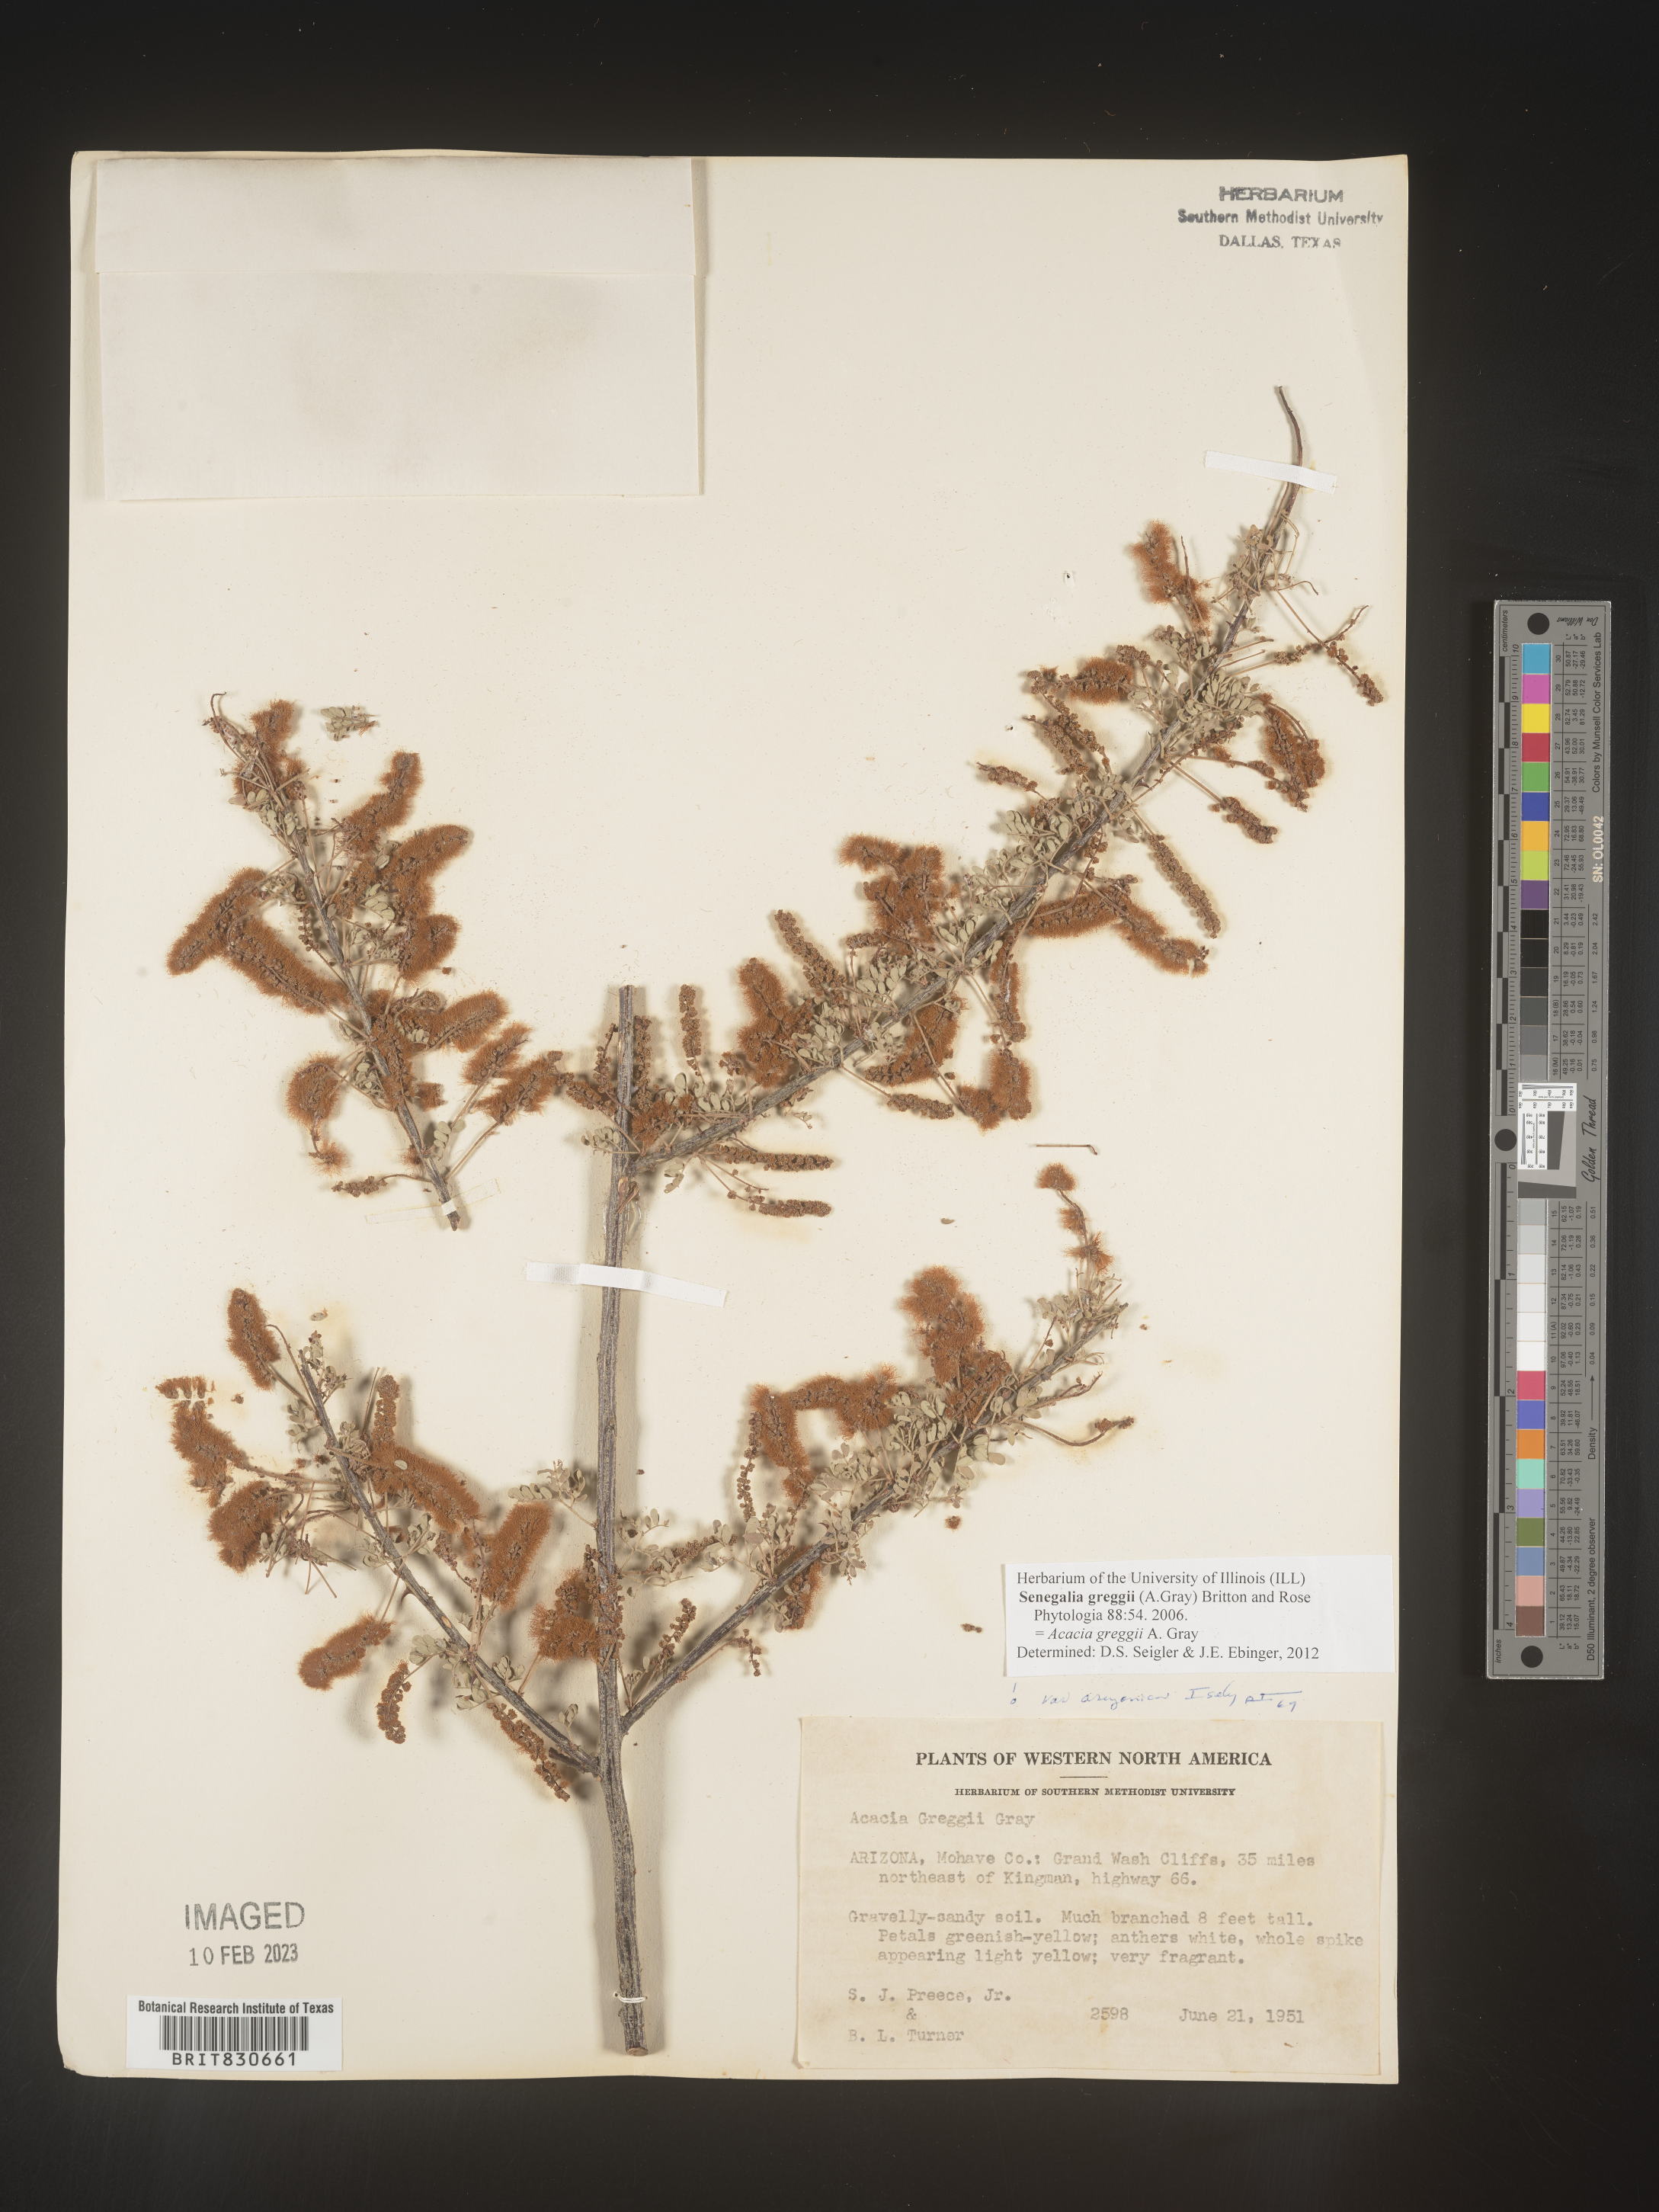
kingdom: Plantae
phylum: Tracheophyta
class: Magnoliopsida
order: Fabales
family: Fabaceae
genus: Senegalia
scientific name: Senegalia greggii
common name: Texas-mimosa
